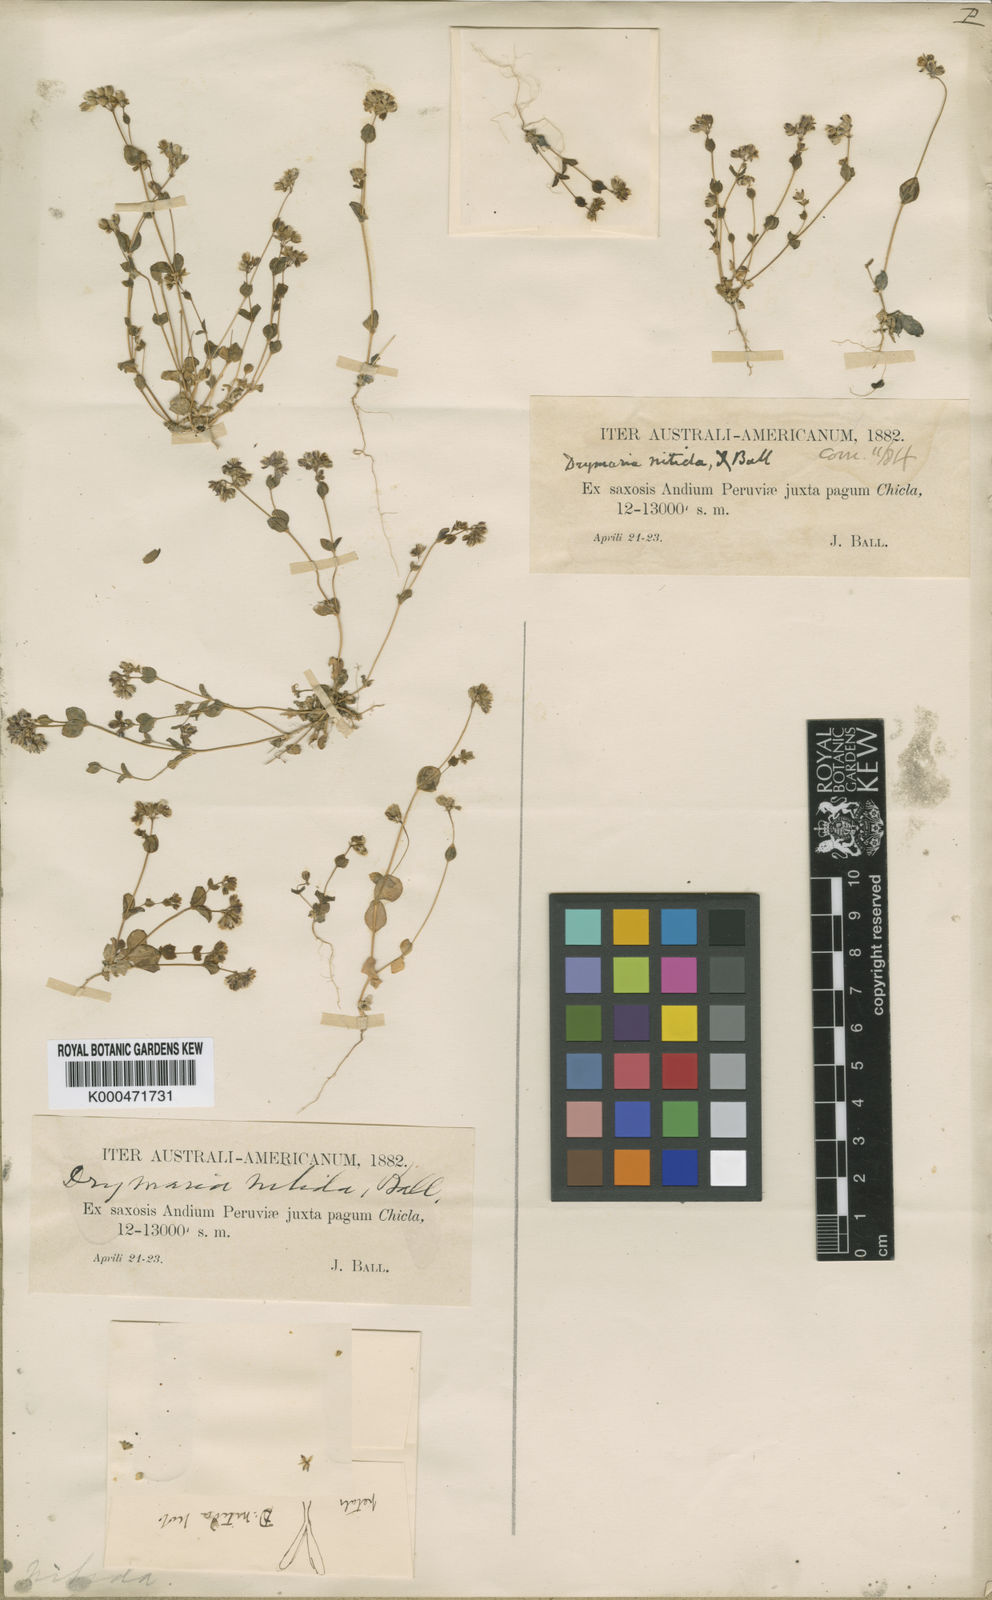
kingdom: Plantae
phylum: Tracheophyta
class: Magnoliopsida
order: Caryophyllales
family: Caryophyllaceae
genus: Drymaria
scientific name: Drymaria rotundifolia
